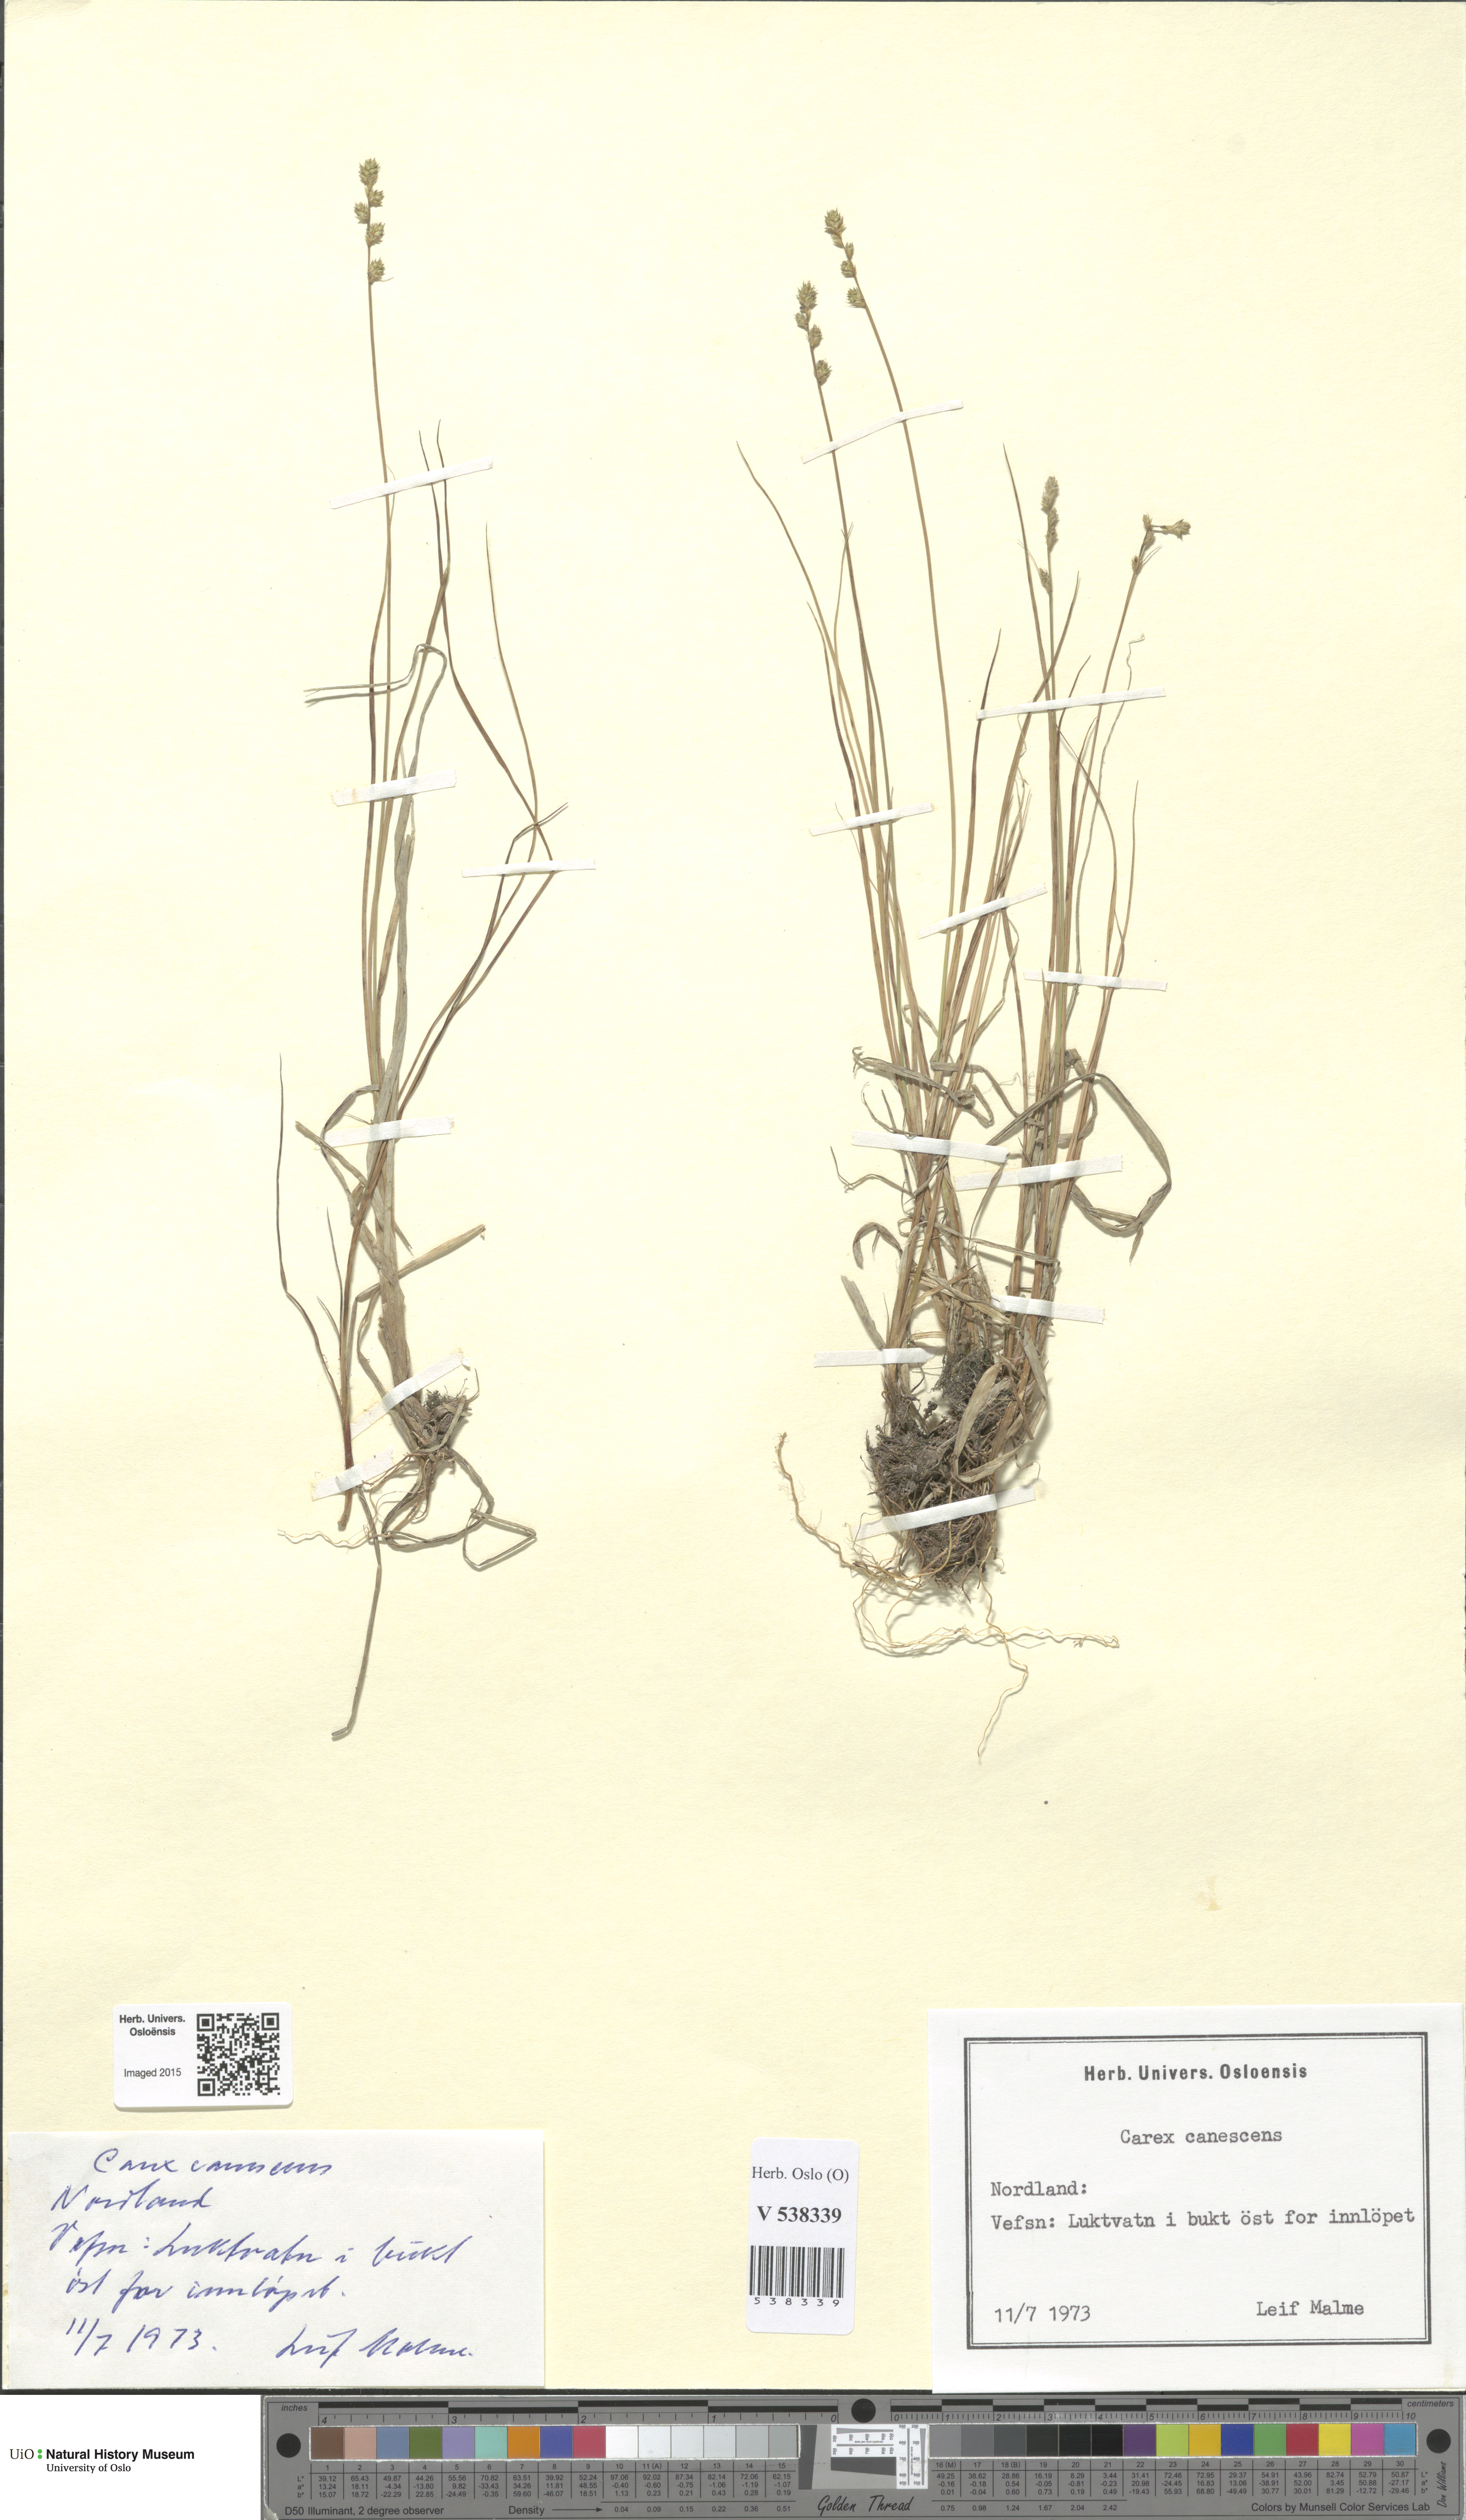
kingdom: Plantae
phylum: Tracheophyta
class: Liliopsida
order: Poales
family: Cyperaceae
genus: Carex
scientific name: Carex canescens
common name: White sedge
